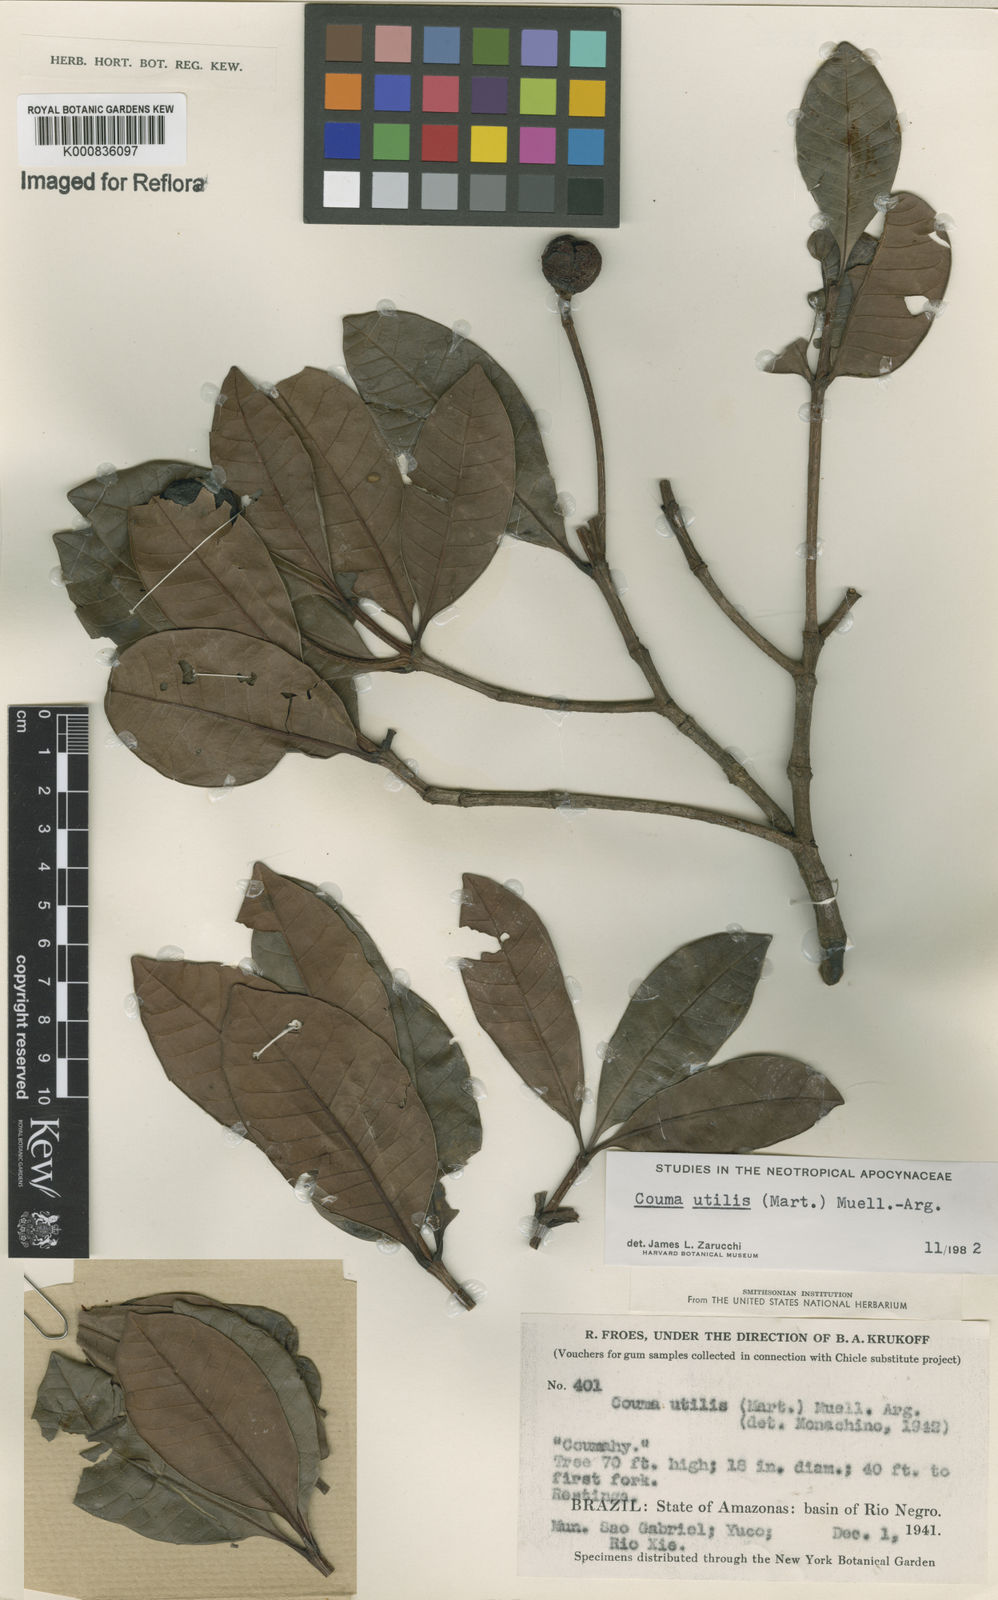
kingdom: Plantae
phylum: Tracheophyta
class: Magnoliopsida
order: Gentianales
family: Apocynaceae
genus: Couma
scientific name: Couma
